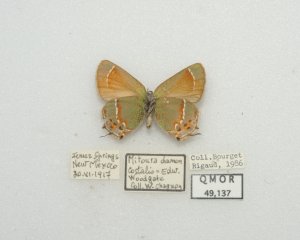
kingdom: Animalia
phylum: Arthropoda
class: Insecta
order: Lepidoptera
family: Lycaenidae
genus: Mitoura
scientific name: Mitoura gryneus
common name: Juniper Hairstreak
